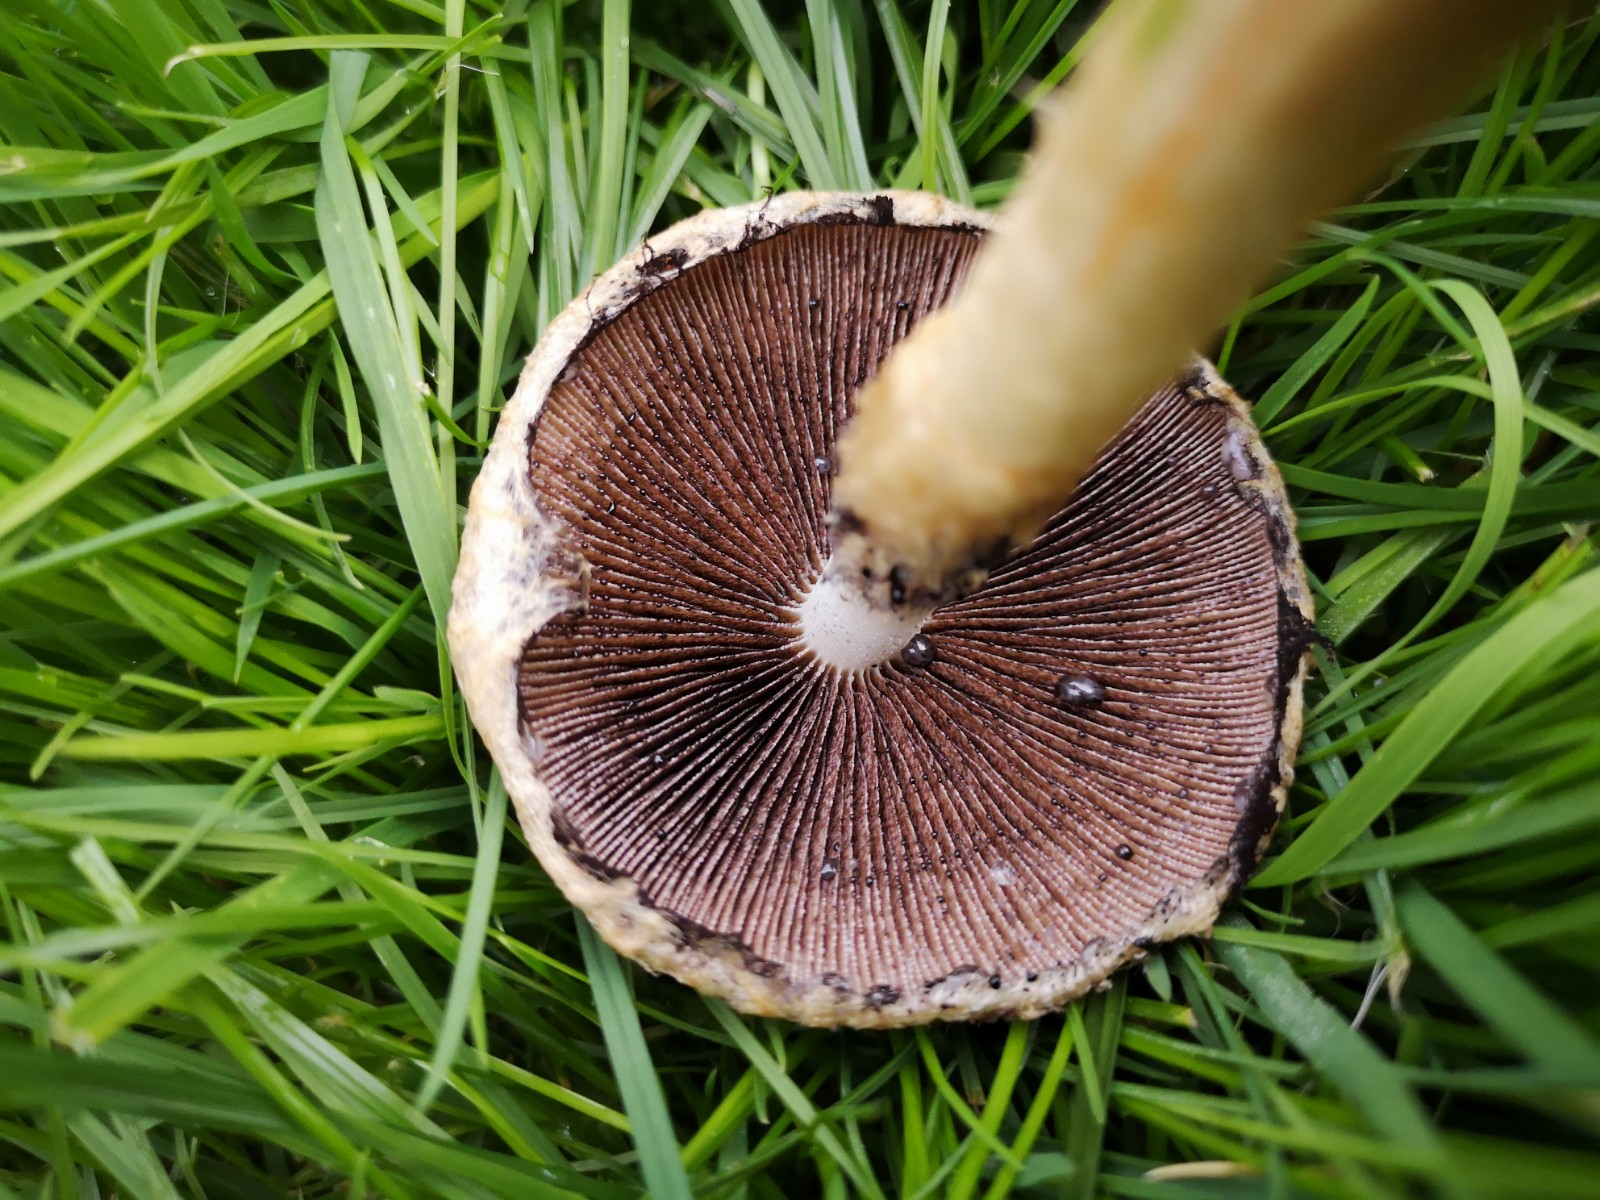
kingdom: Fungi
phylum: Basidiomycota
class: Agaricomycetes
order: Agaricales
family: Psathyrellaceae
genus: Lacrymaria
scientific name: Lacrymaria lacrymabunda
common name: grædende mørkhat
